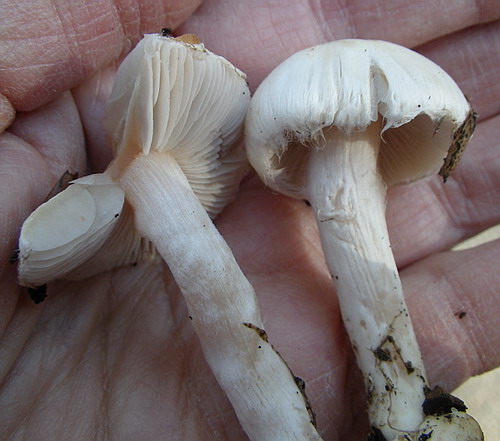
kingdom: Fungi
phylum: Basidiomycota
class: Agaricomycetes
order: Agaricales
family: Inocybaceae
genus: Inocybe
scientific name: Inocybe whitei
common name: Blushing fibrecap
